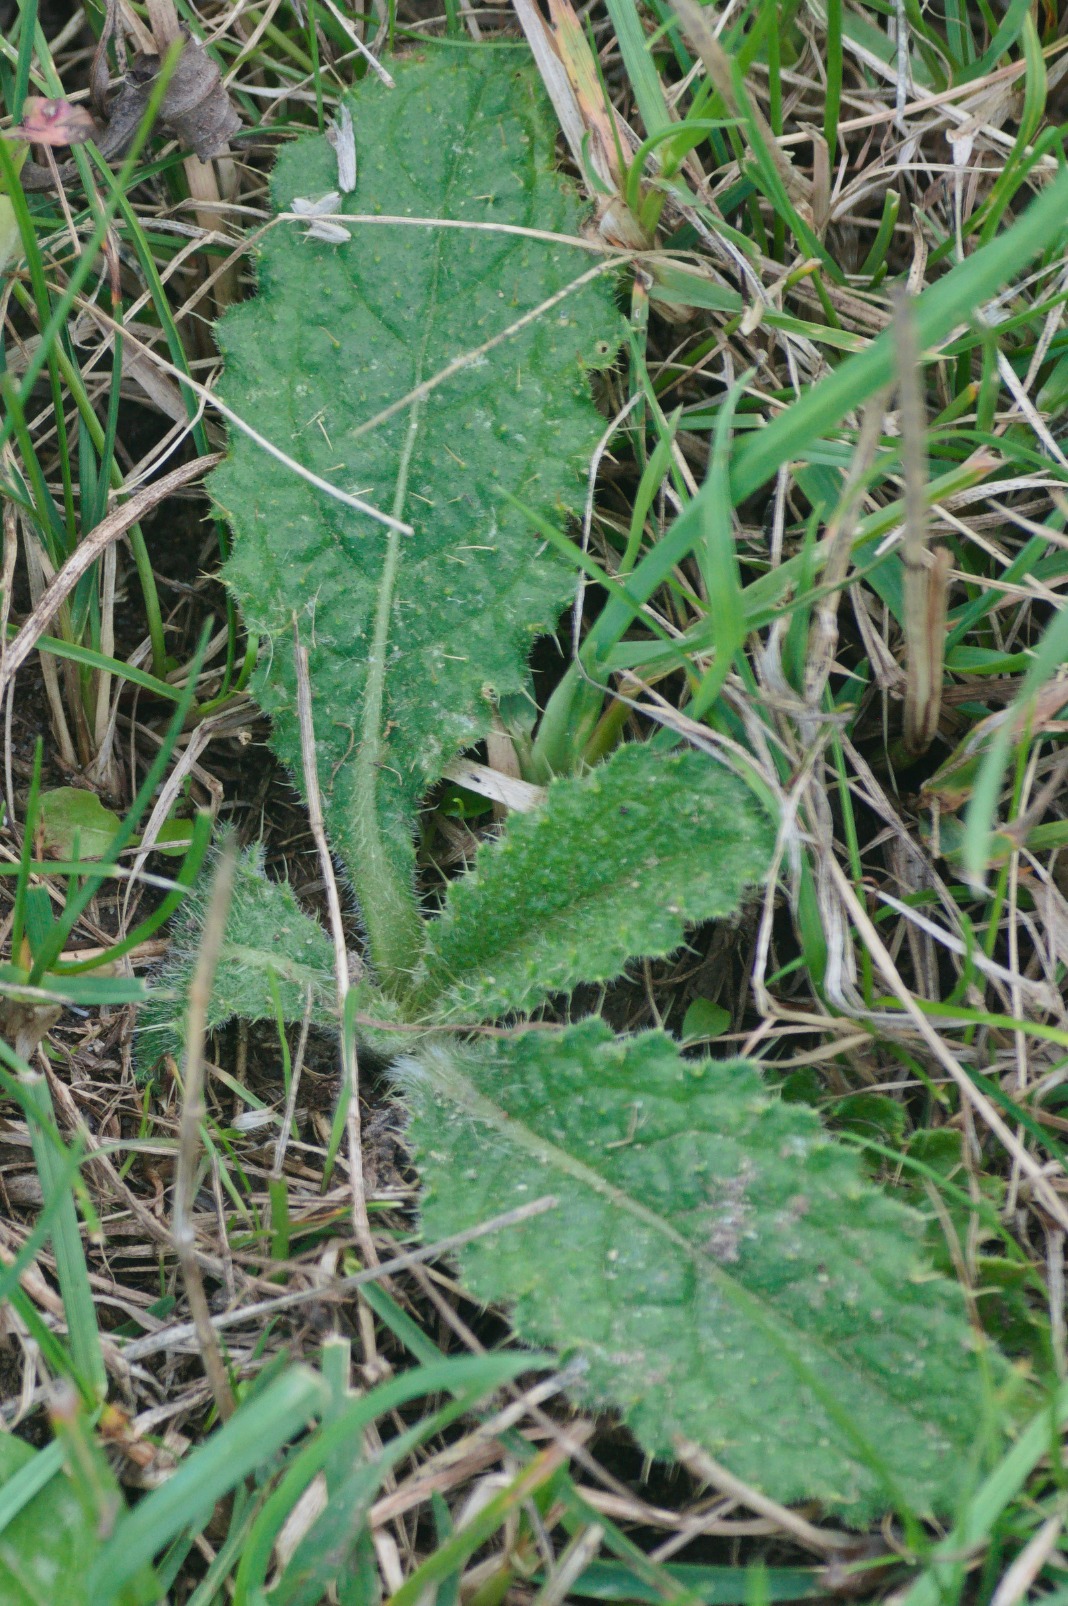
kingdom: Plantae
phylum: Tracheophyta
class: Magnoliopsida
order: Asterales
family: Asteraceae
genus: Cirsium
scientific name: Cirsium vulgare
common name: Horse-tidsel
